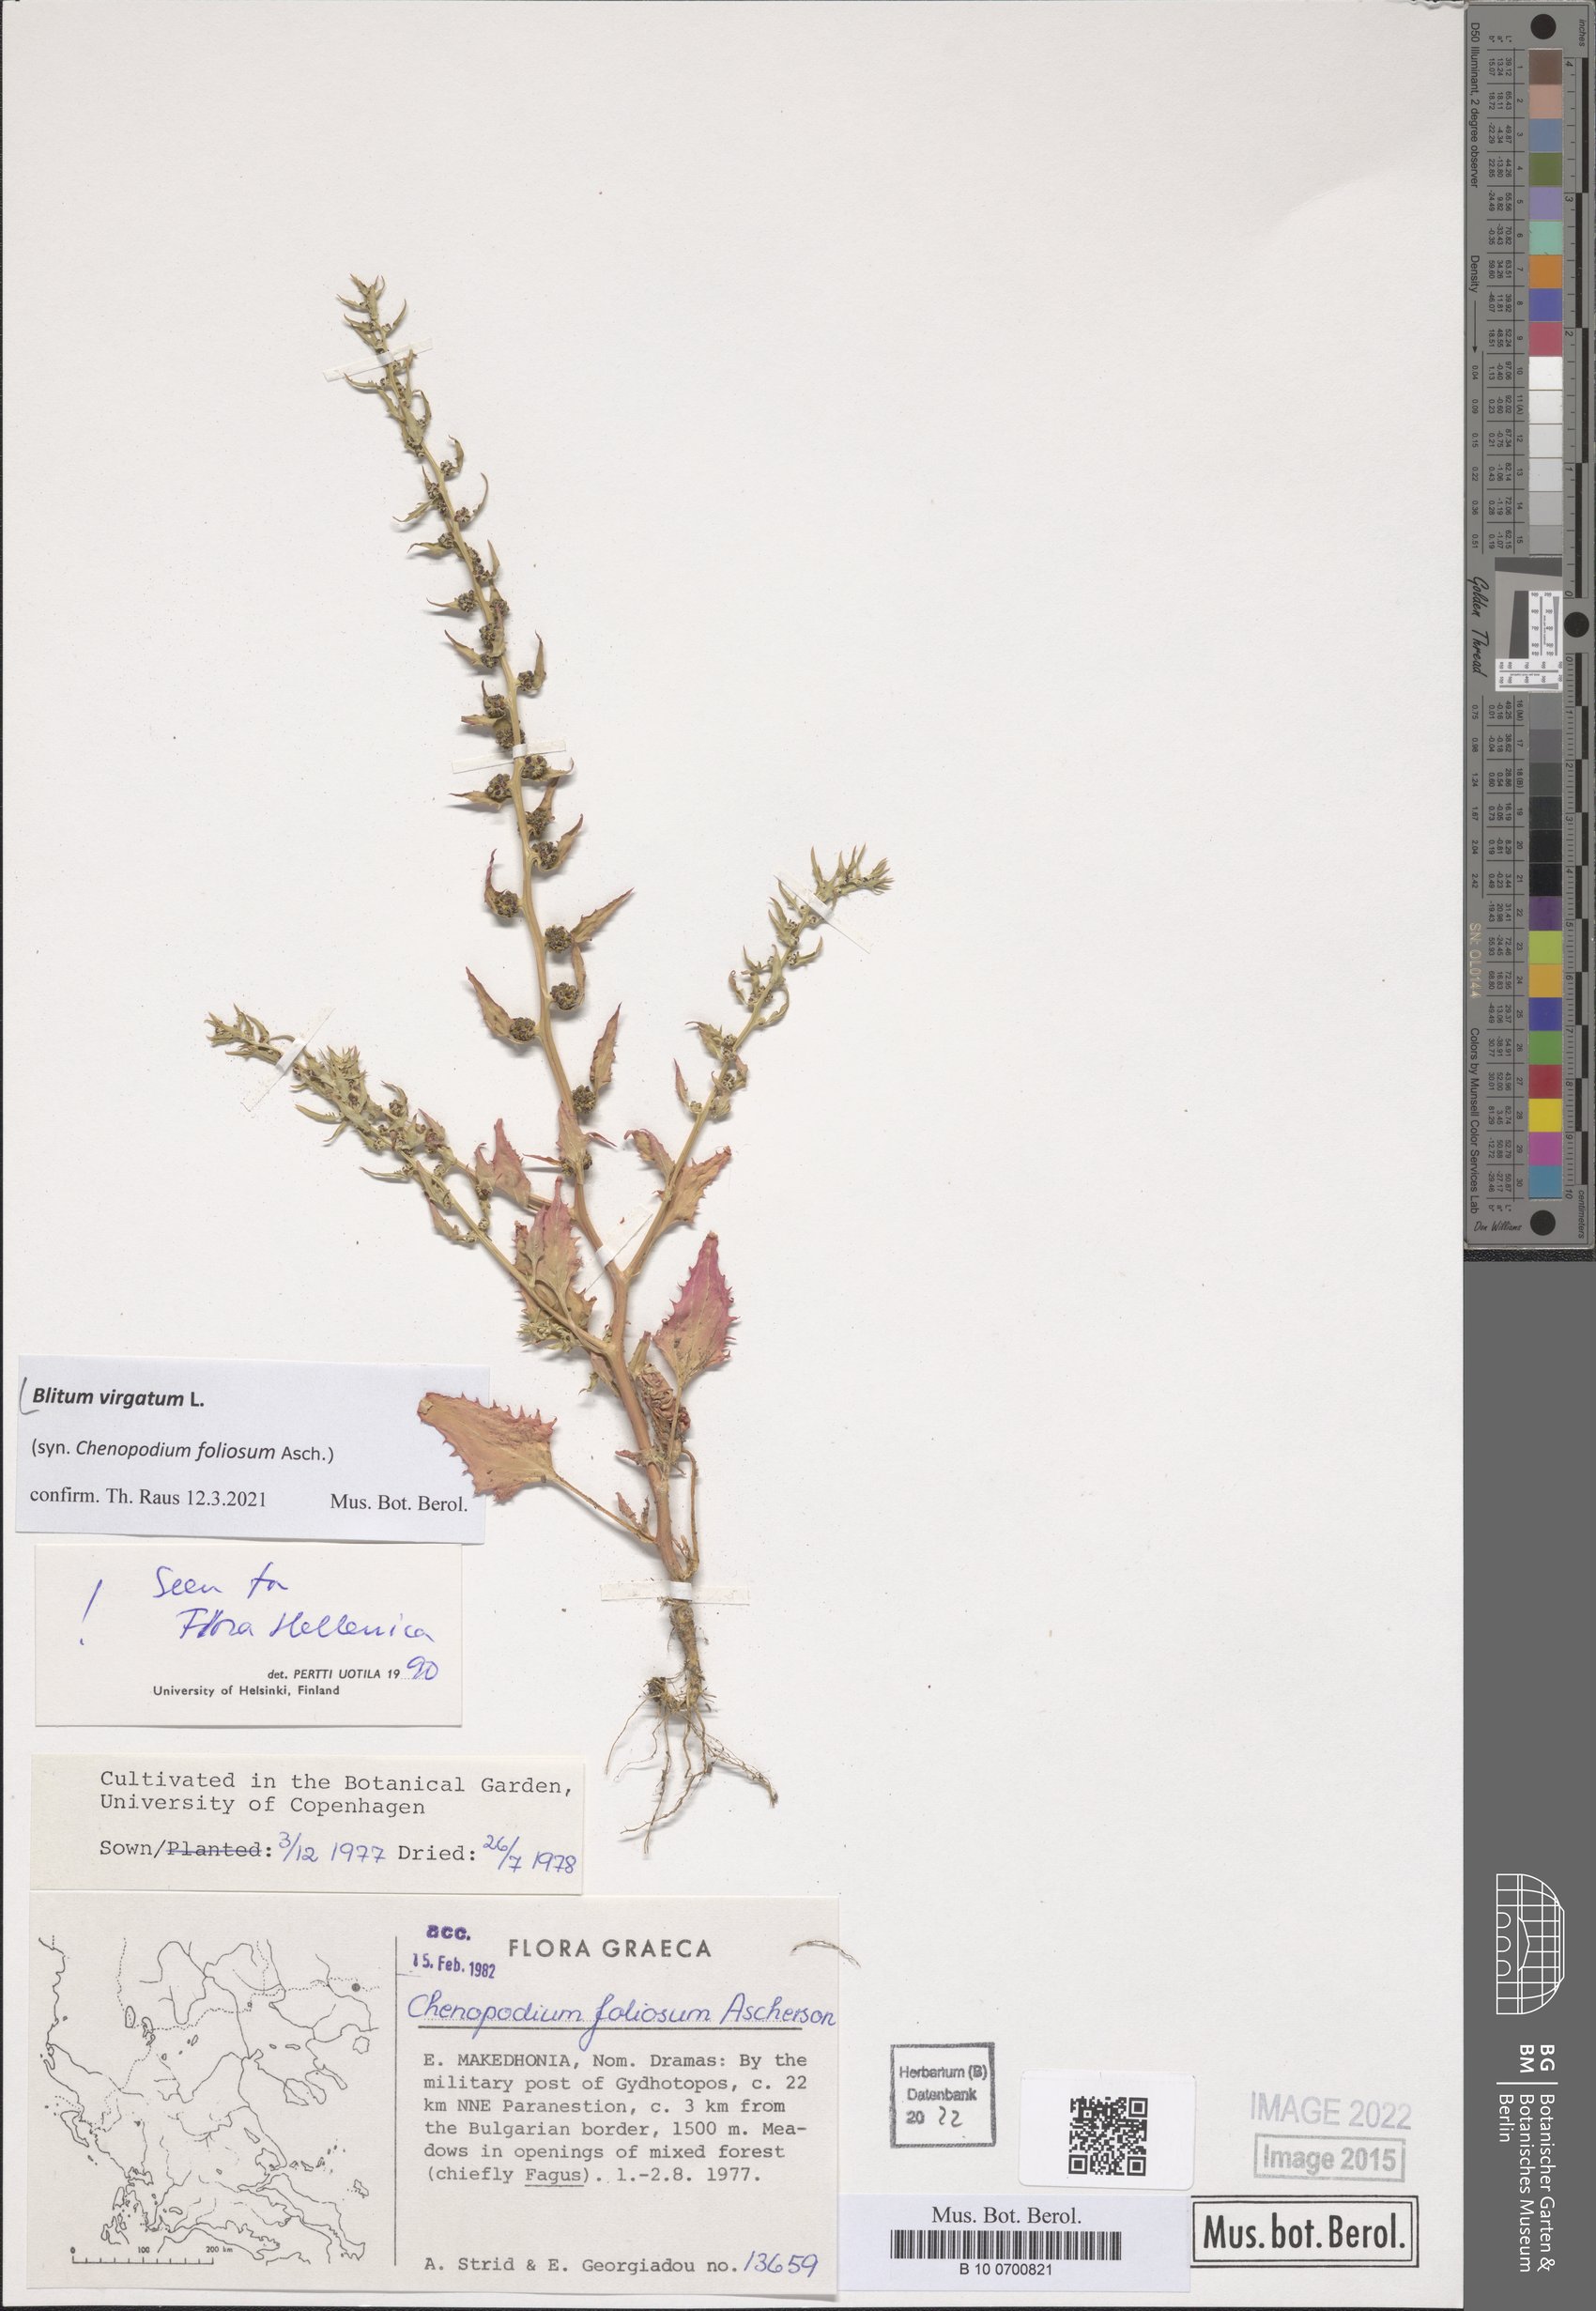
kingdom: Plantae
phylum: Tracheophyta
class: Magnoliopsida
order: Caryophyllales
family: Amaranthaceae
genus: Blitum
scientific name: Blitum virgatum
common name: Strawberry goosefoot
